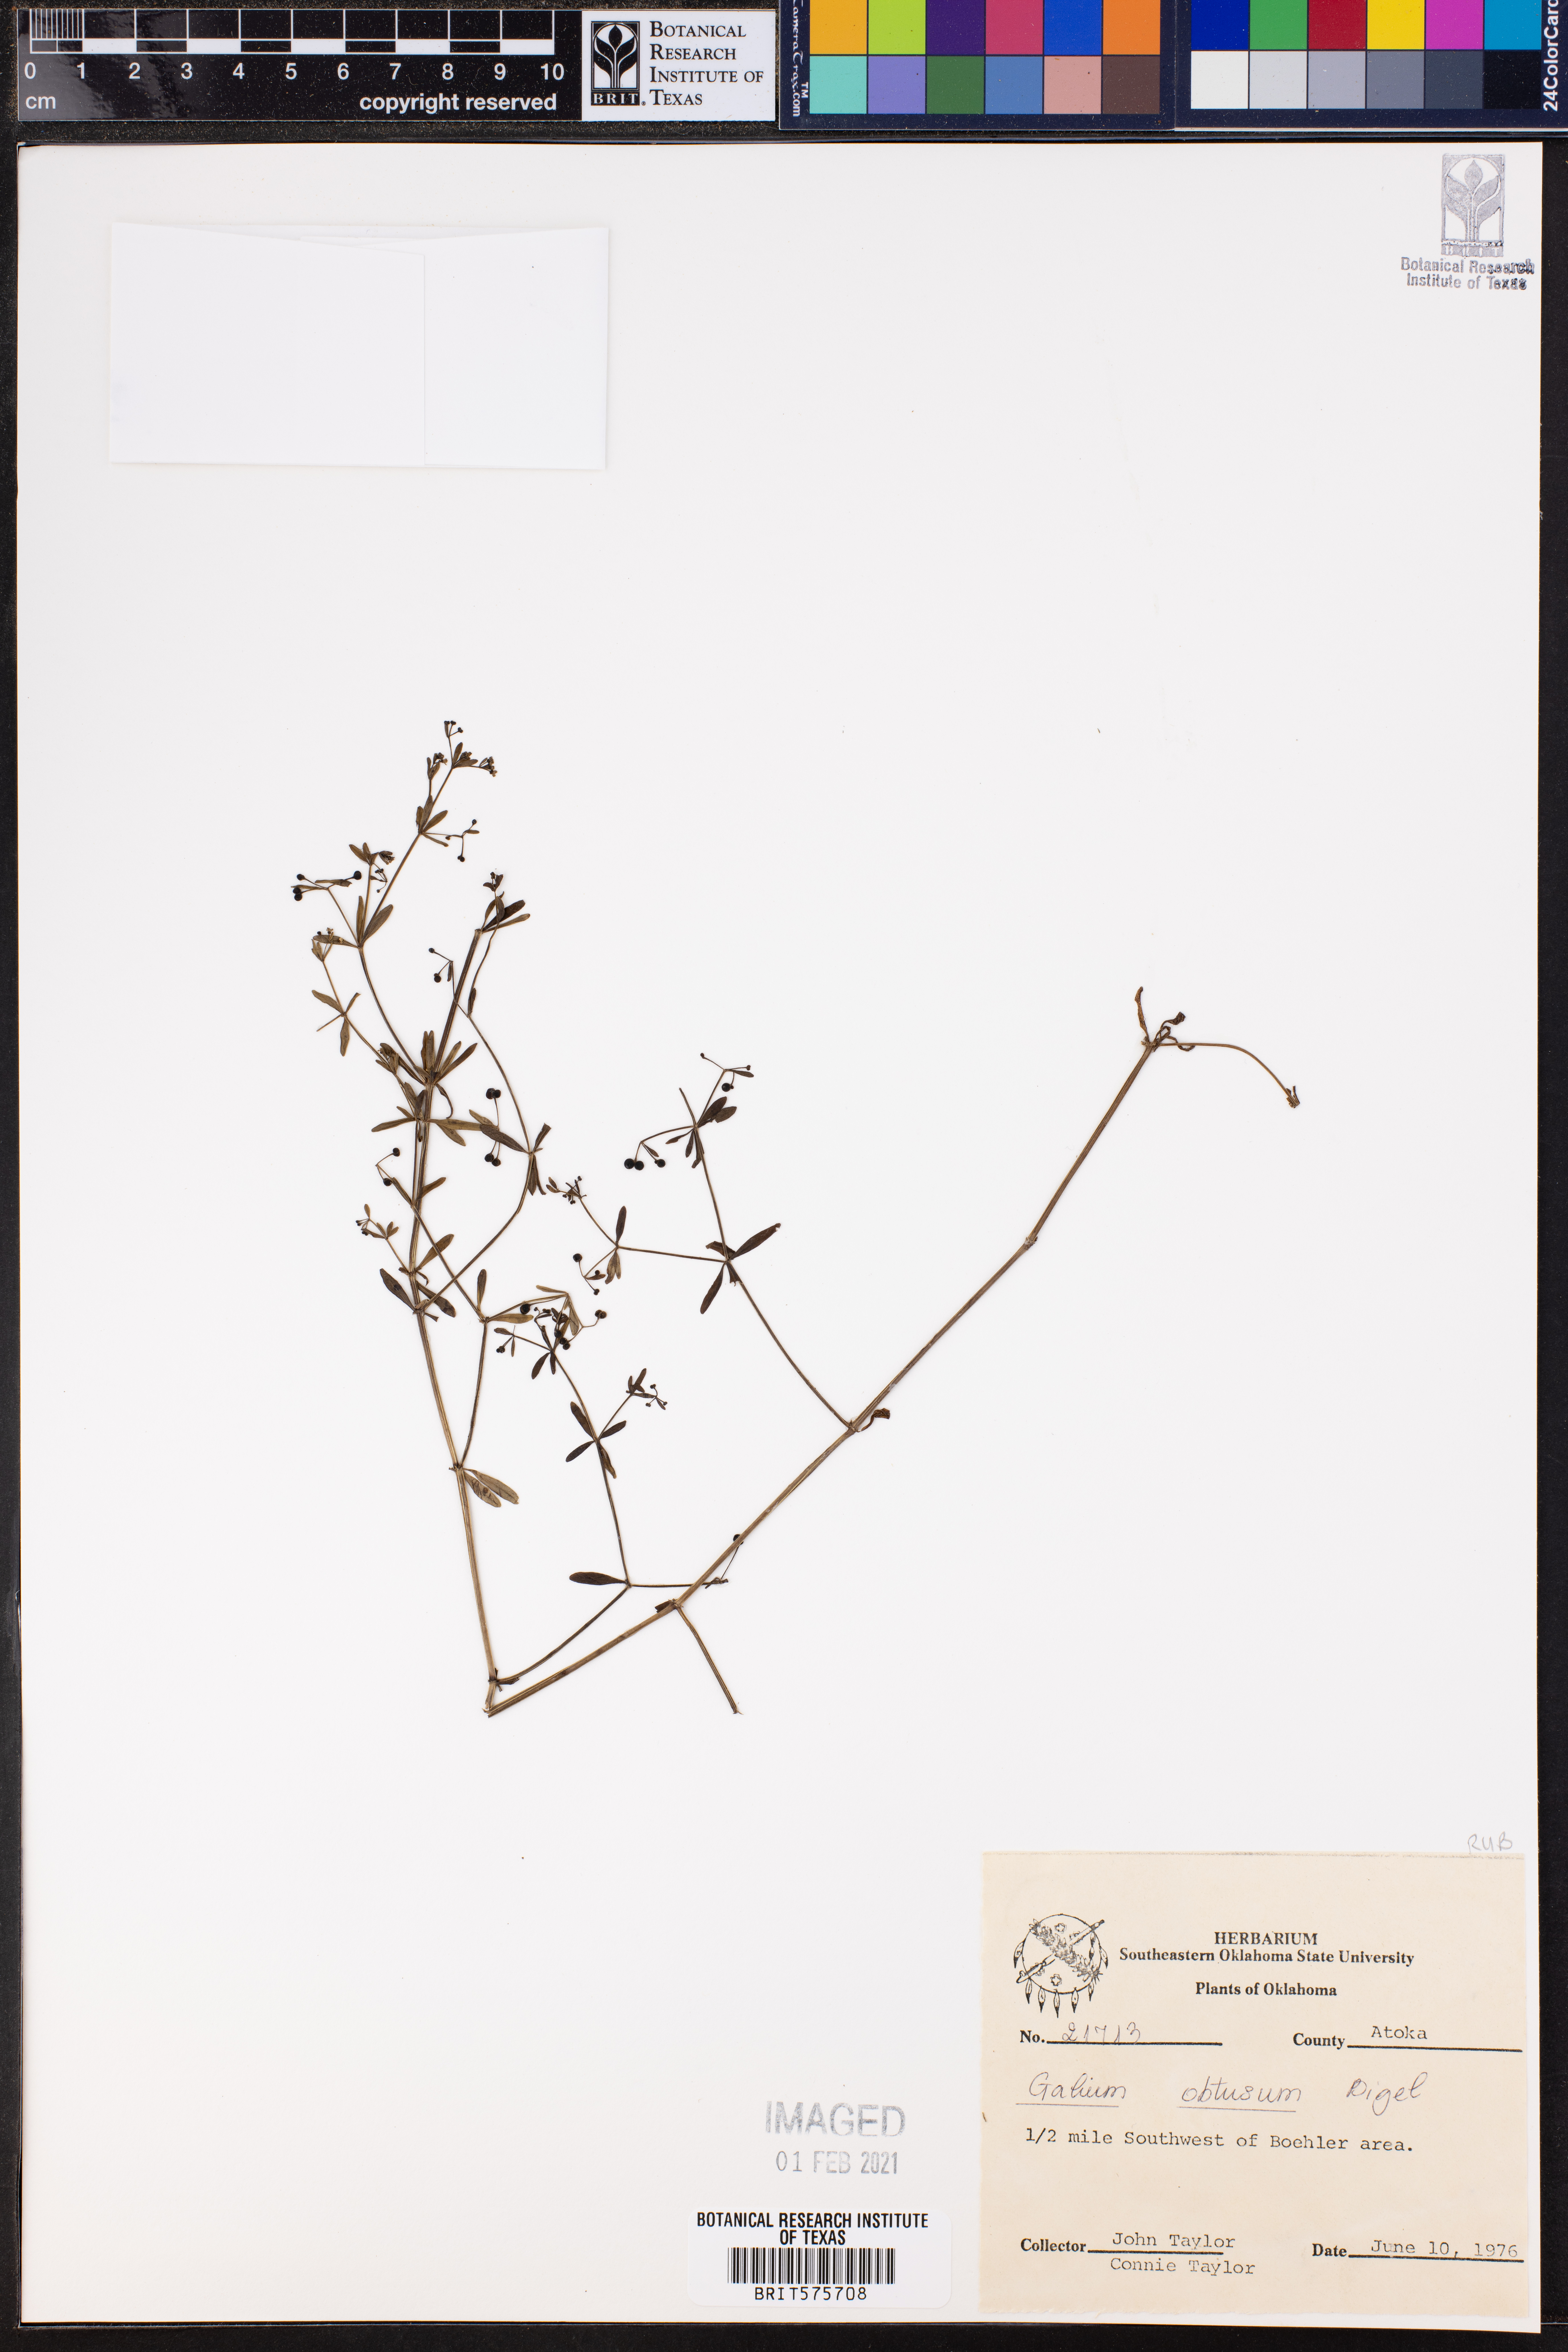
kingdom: Plantae
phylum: Tracheophyta
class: Magnoliopsida
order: Gentianales
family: Rubiaceae
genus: Galium
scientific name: Galium obtusum
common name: Blunt-leaved bedstraw
